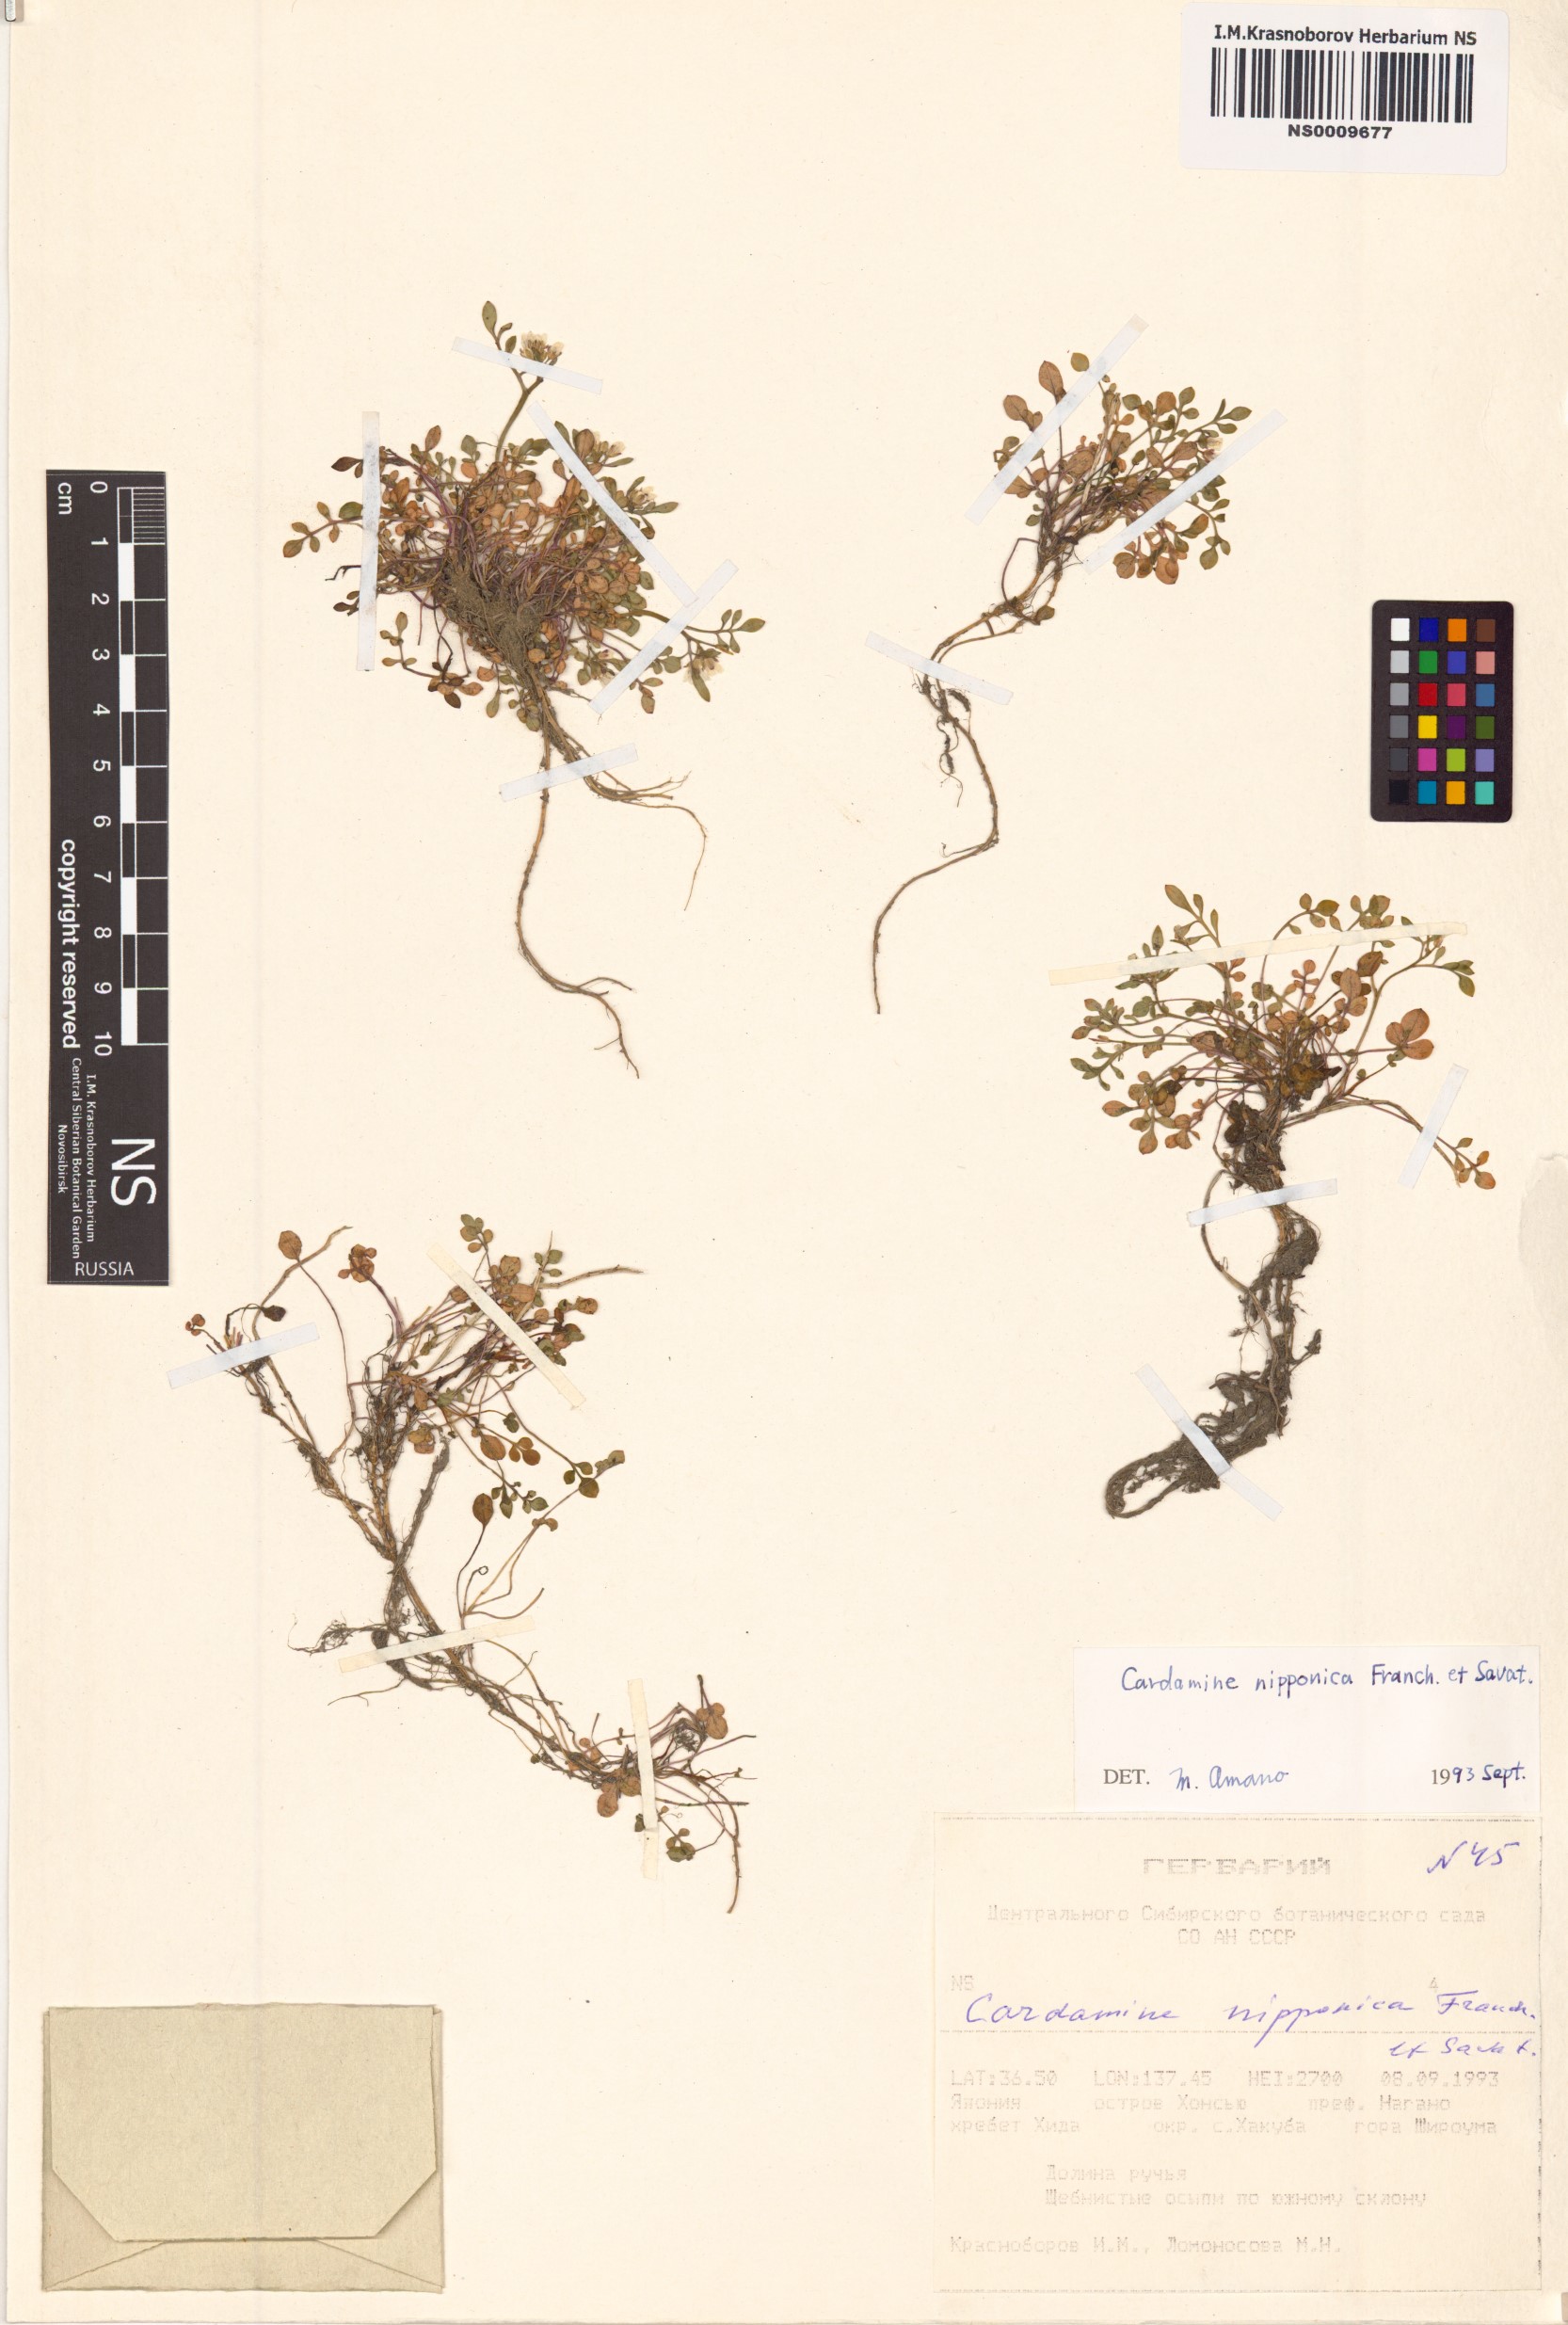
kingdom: Plantae
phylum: Tracheophyta
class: Magnoliopsida
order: Brassicales
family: Brassicaceae
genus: Cardamine
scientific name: Cardamine nipponica
